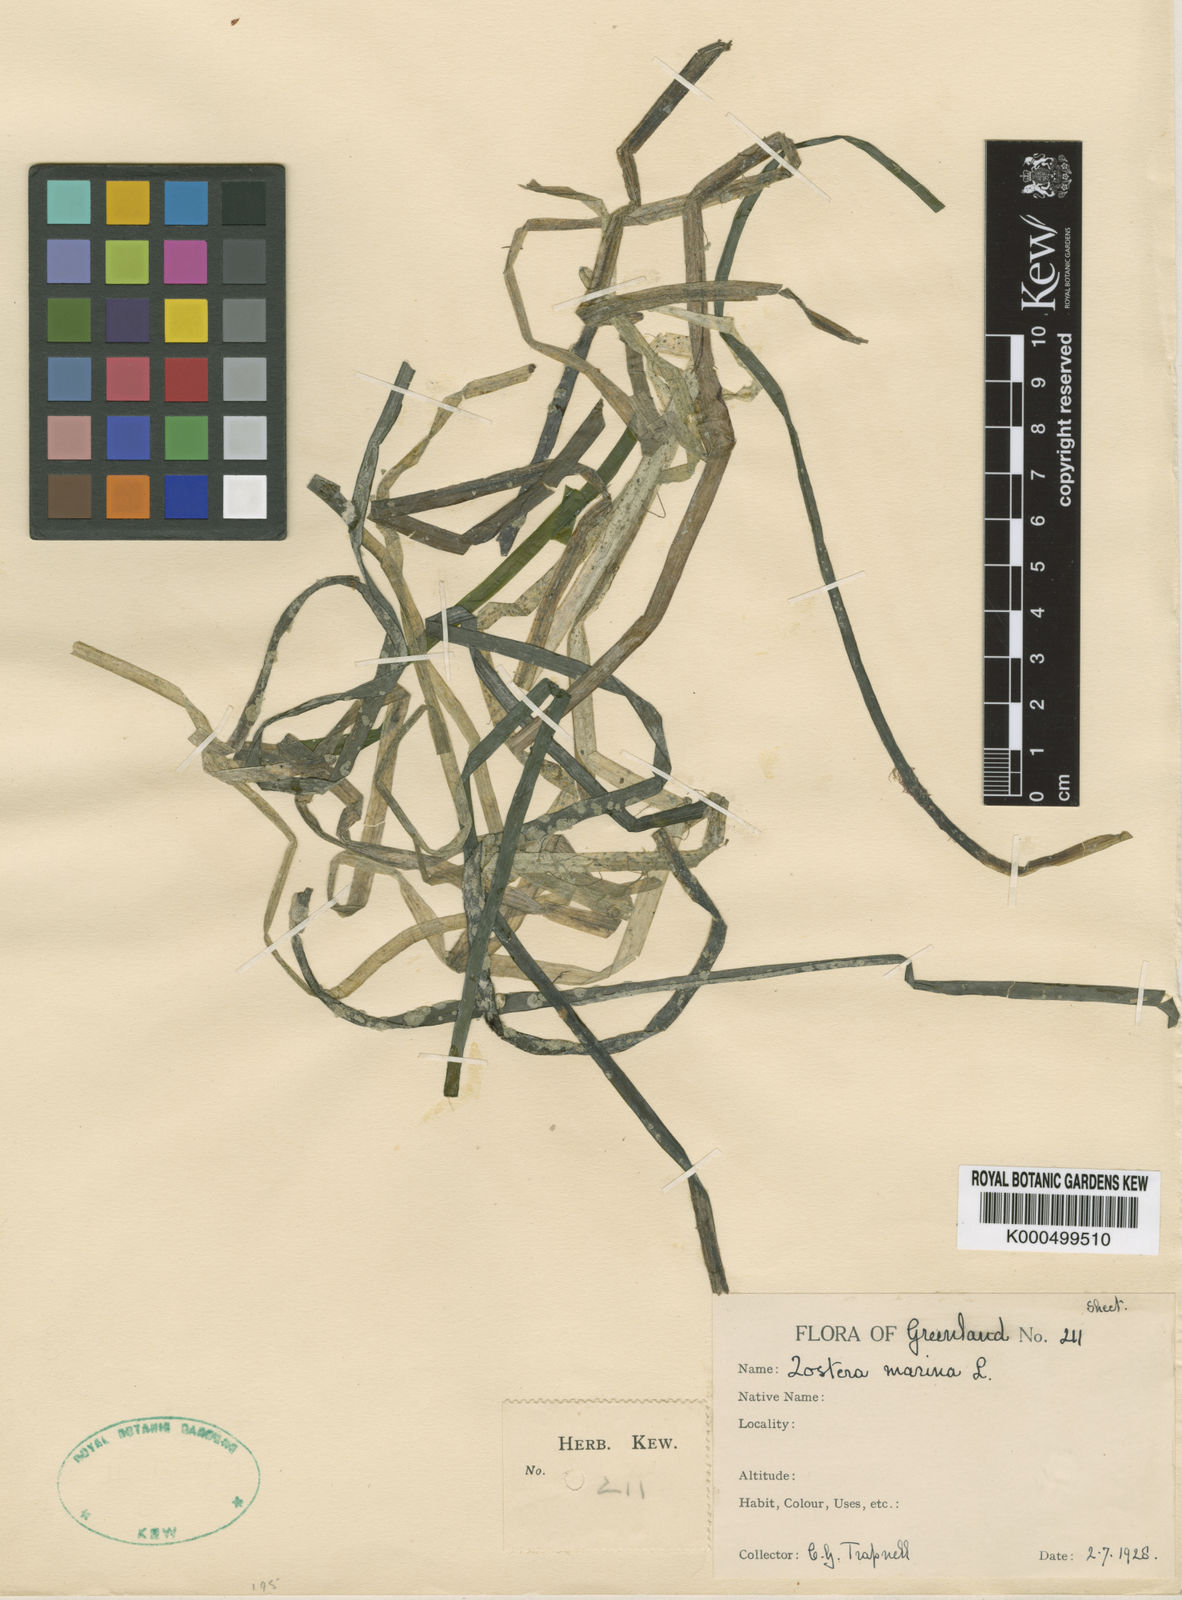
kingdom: Plantae
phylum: Tracheophyta
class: Liliopsida
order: Alismatales
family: Zosteraceae
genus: Zostera
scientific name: Zostera marina
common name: Eelgrass
